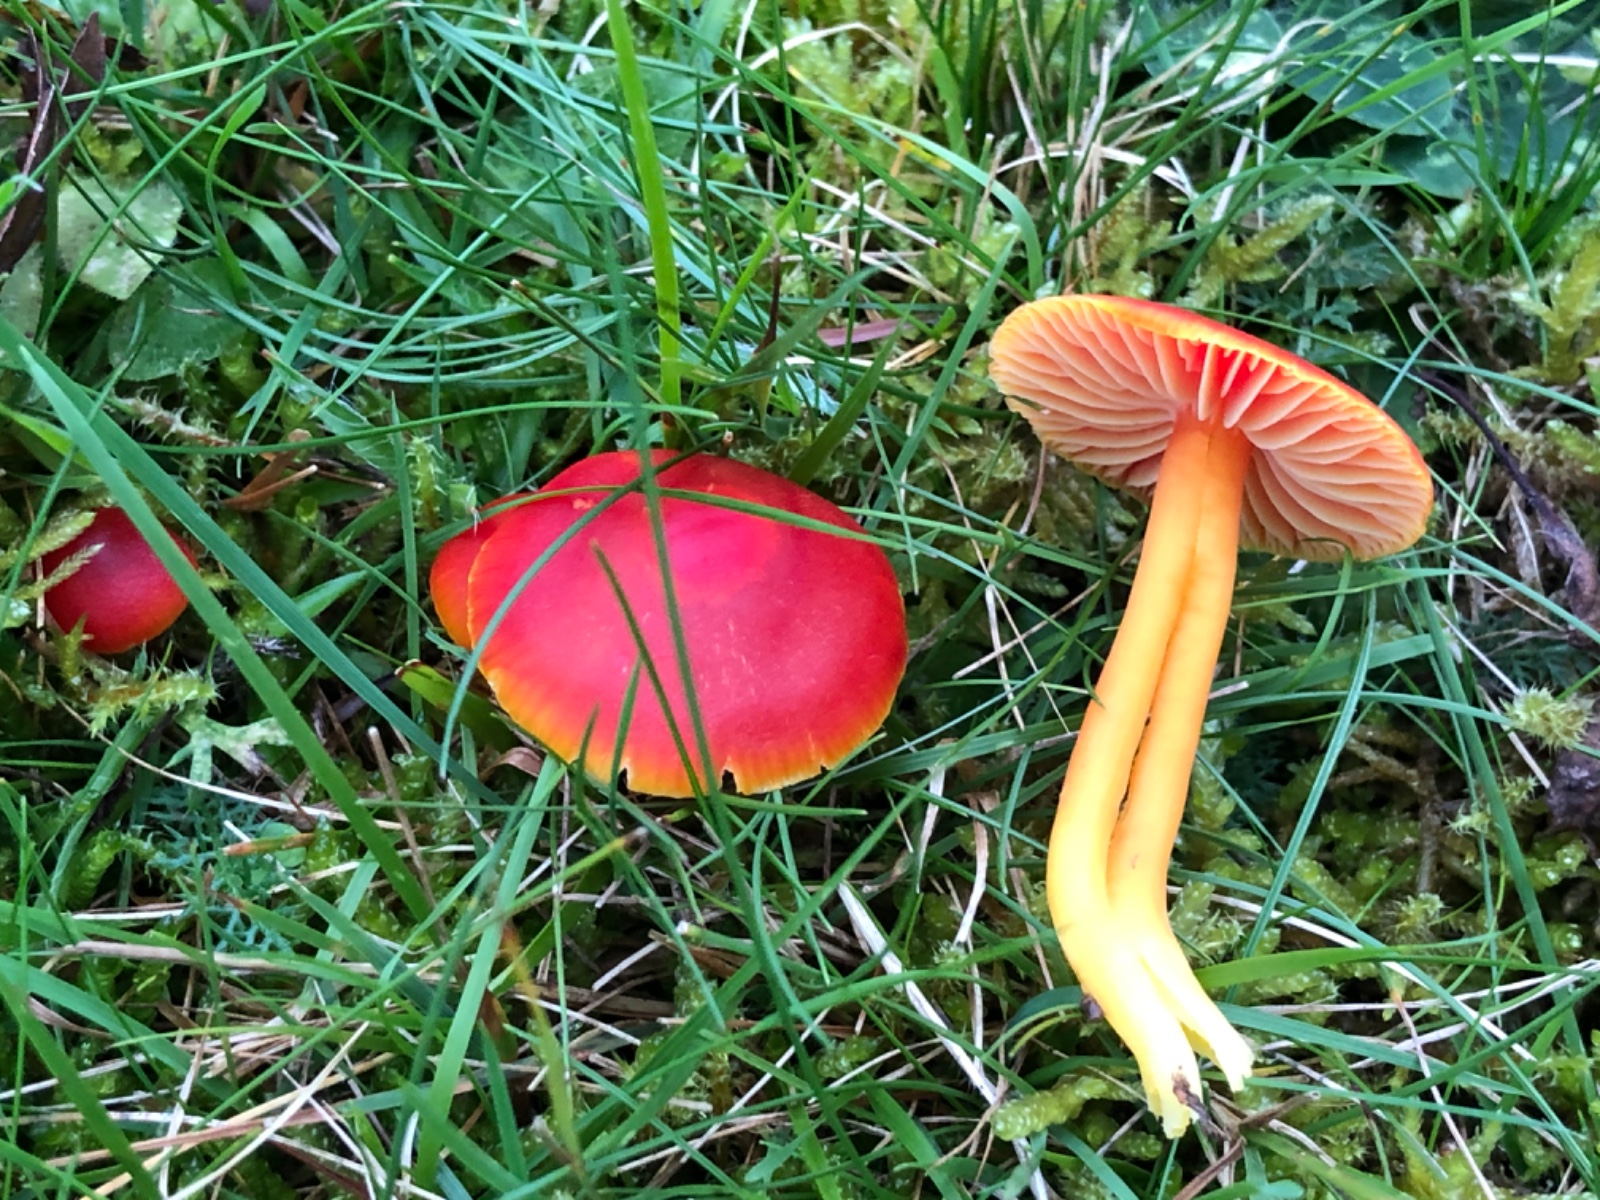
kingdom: Fungi
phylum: Basidiomycota
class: Agaricomycetes
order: Agaricales
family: Hygrophoraceae
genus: Hygrocybe
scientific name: Hygrocybe coccinea
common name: cinnober-vokshat
